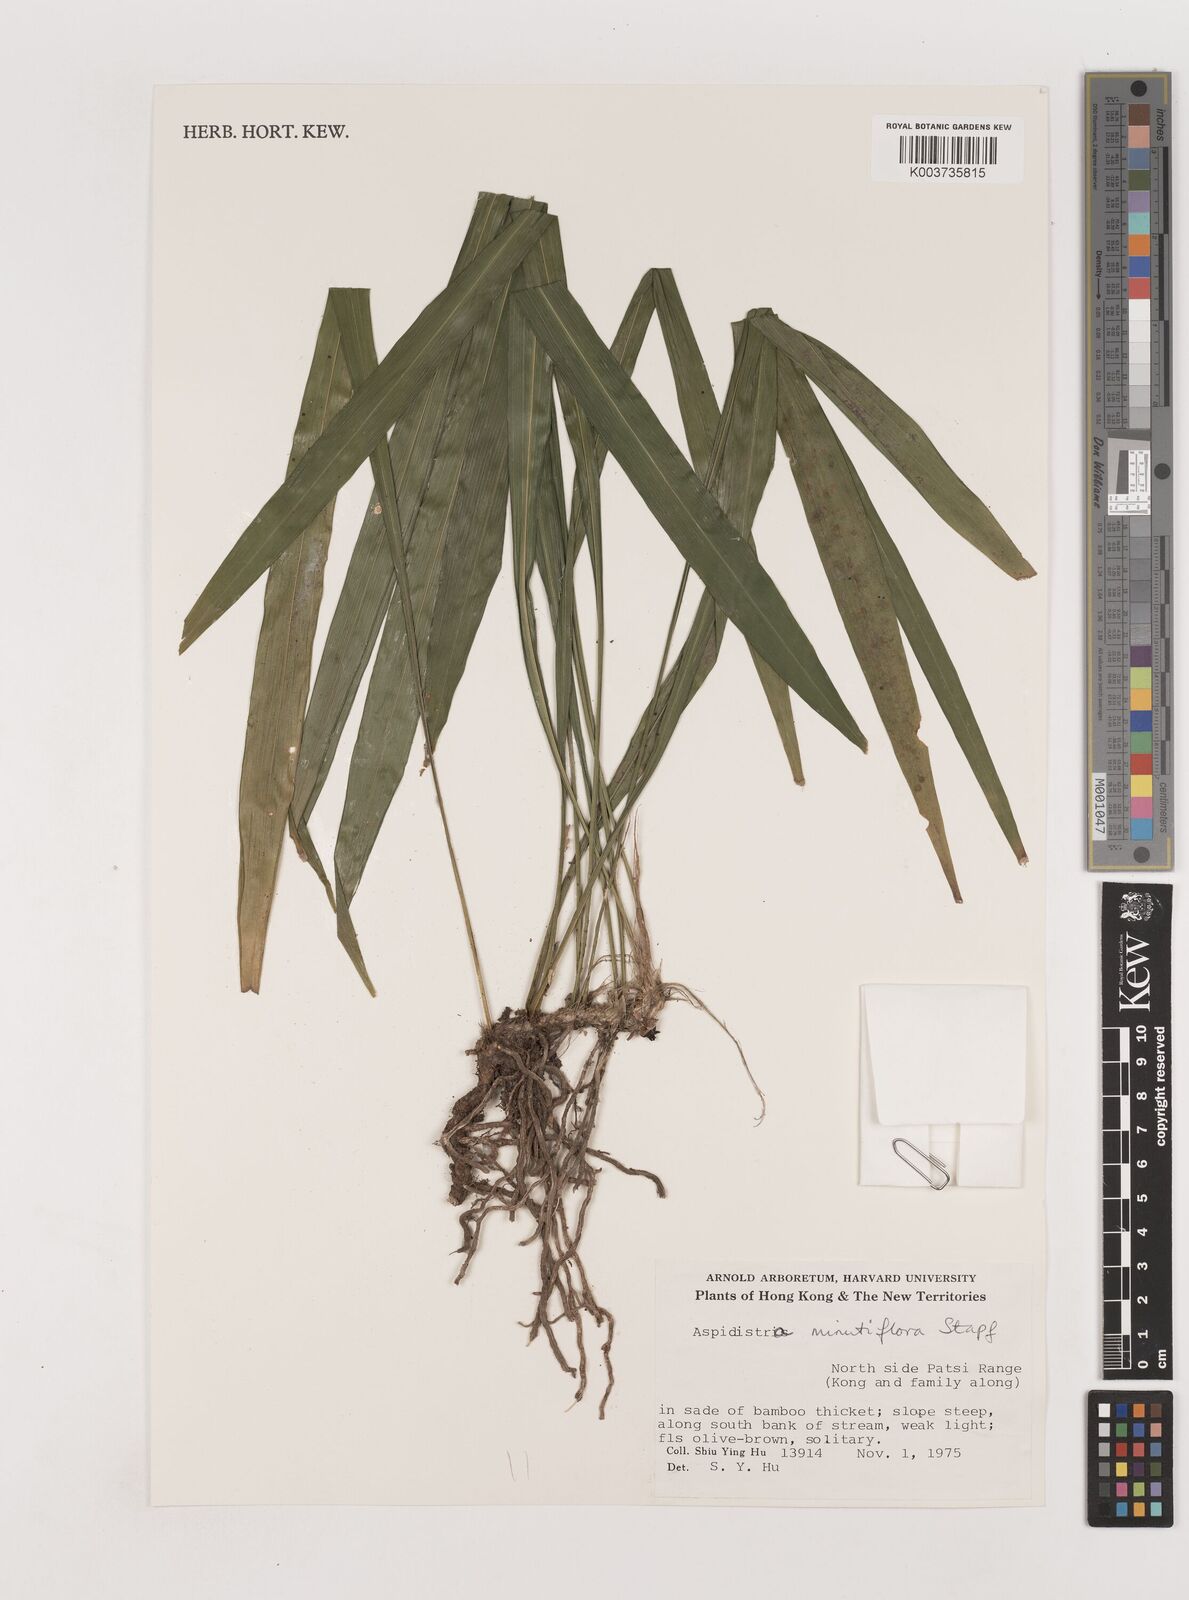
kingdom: Plantae
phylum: Tracheophyta
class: Liliopsida
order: Asparagales
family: Asparagaceae
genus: Aspidistra
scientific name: Aspidistra minutiflora
